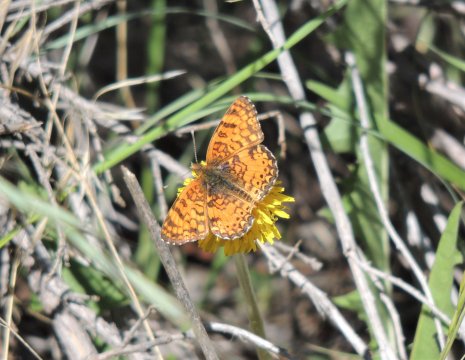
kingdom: Animalia
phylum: Arthropoda
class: Insecta
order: Lepidoptera
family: Nymphalidae
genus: Eresia
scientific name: Eresia aveyrona
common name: Mylitta Crescent
